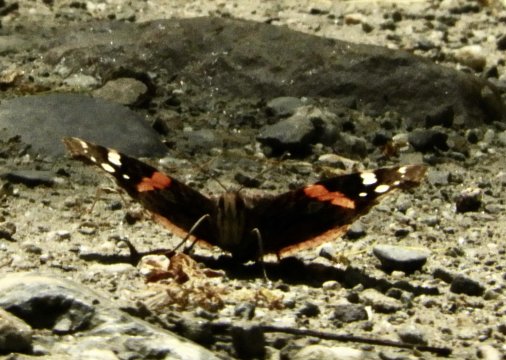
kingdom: Animalia
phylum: Arthropoda
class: Insecta
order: Lepidoptera
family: Nymphalidae
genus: Vanessa
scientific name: Vanessa atalanta
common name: Red Admiral
